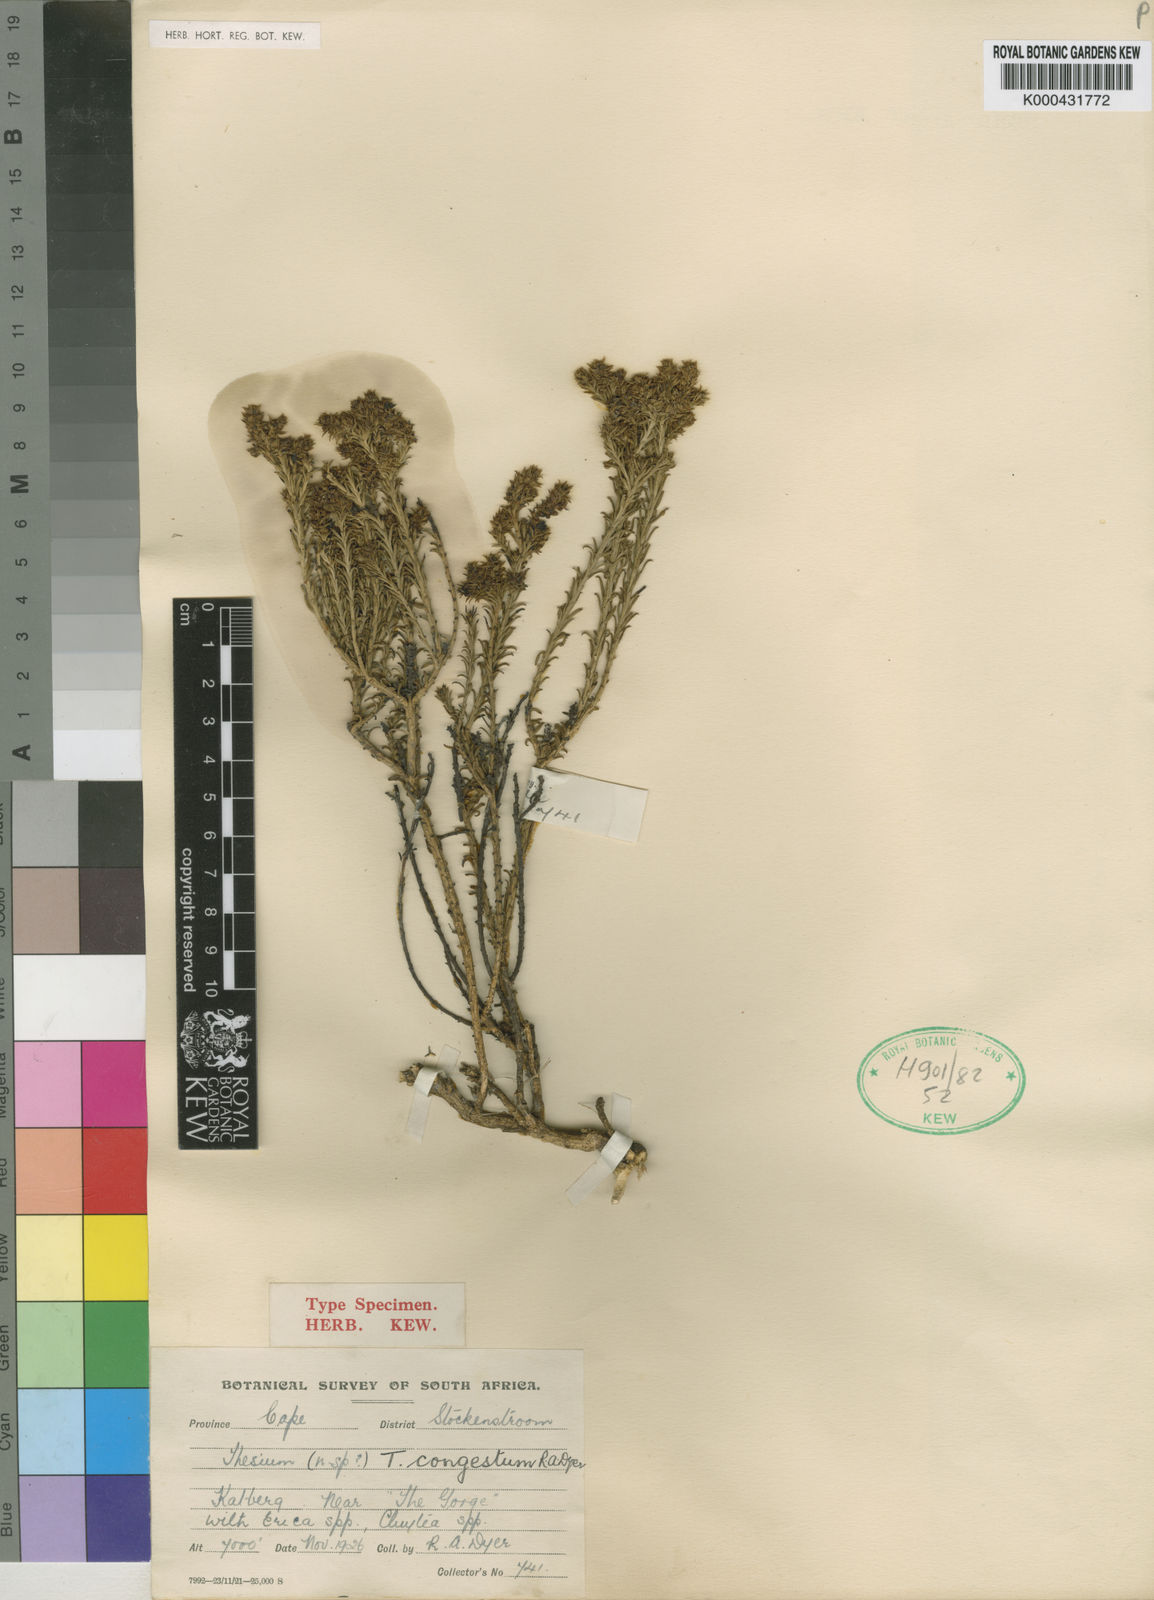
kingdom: Plantae
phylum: Tracheophyta
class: Magnoliopsida
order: Santalales
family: Thesiaceae
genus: Thesium
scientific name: Thesium congestum
